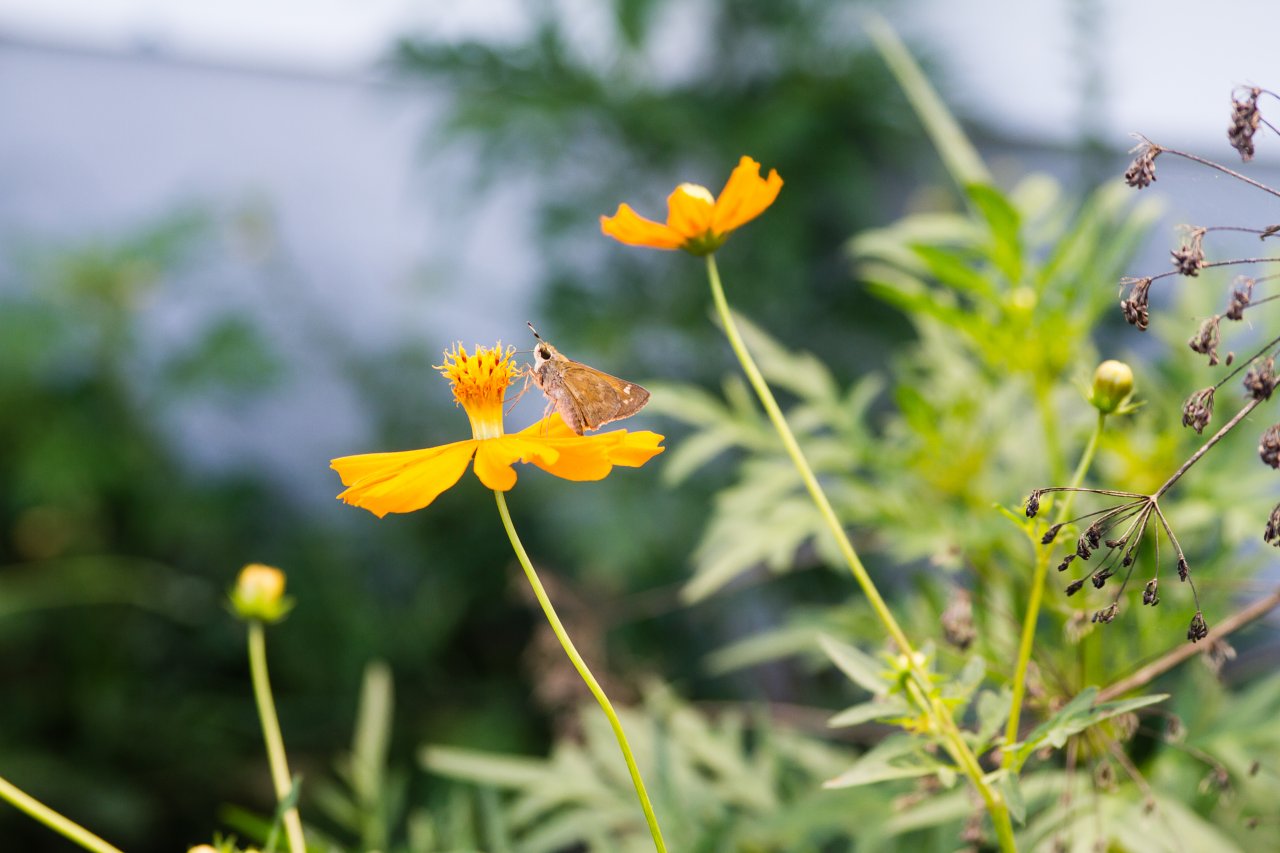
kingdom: Animalia
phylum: Arthropoda
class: Insecta
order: Lepidoptera
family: Hesperiidae
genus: Atalopedes
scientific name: Atalopedes campestris
